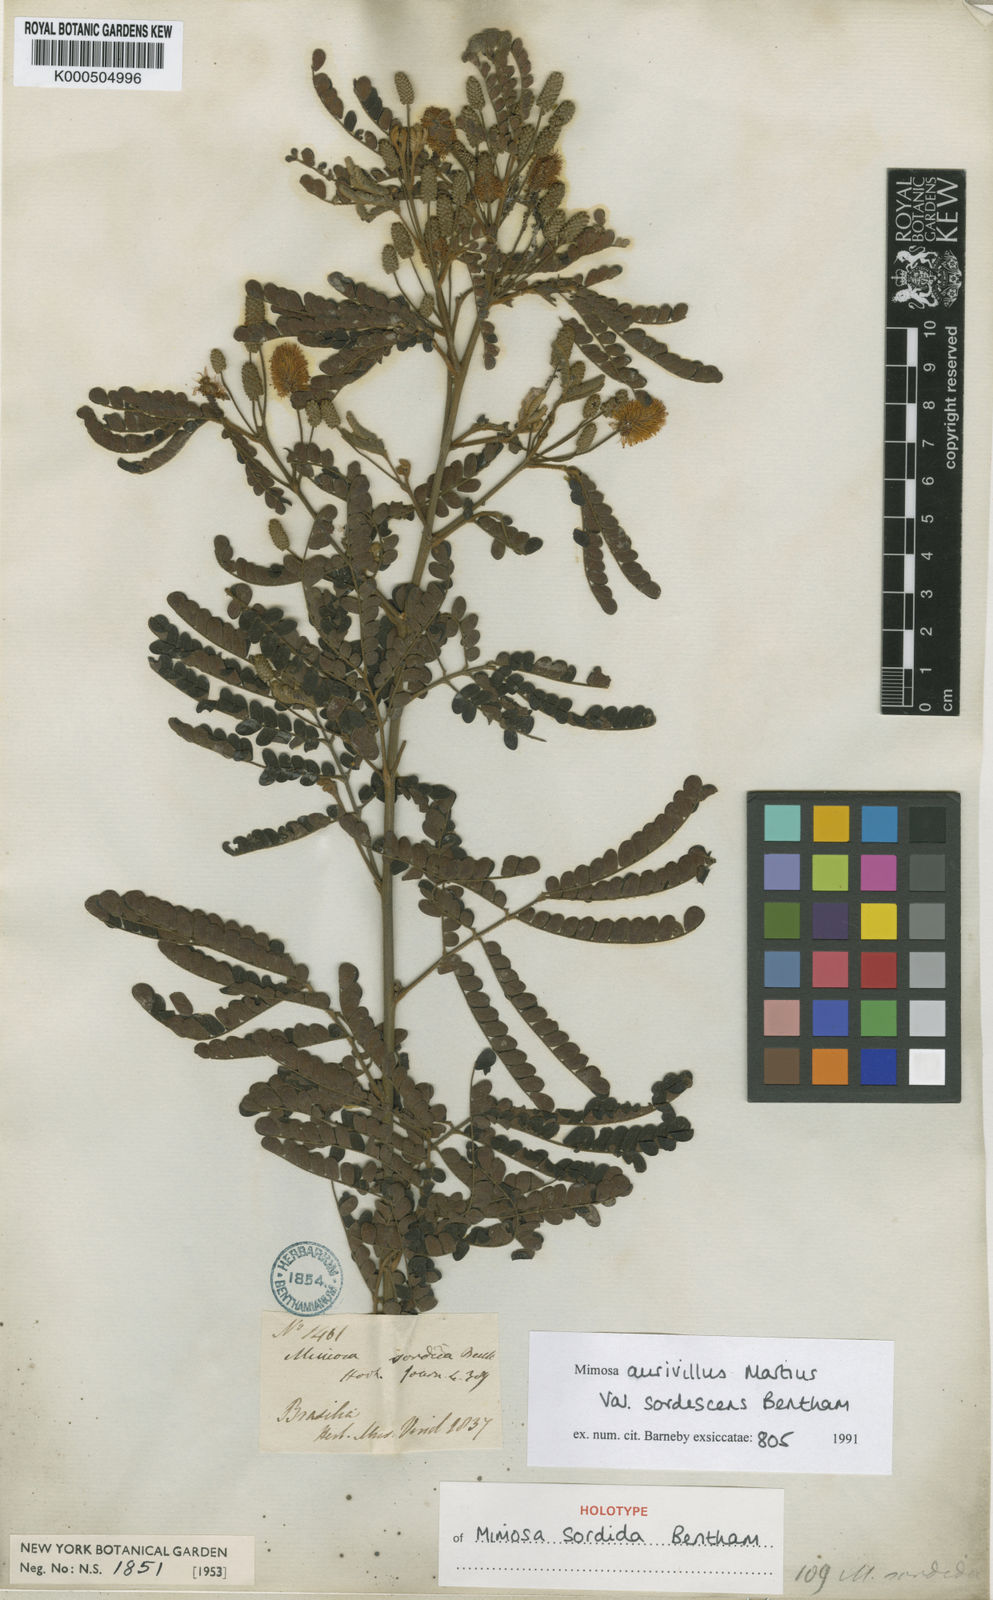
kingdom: Plantae
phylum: Tracheophyta
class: Magnoliopsida
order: Fabales
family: Fabaceae
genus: Mimosa
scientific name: Mimosa aurivillus
